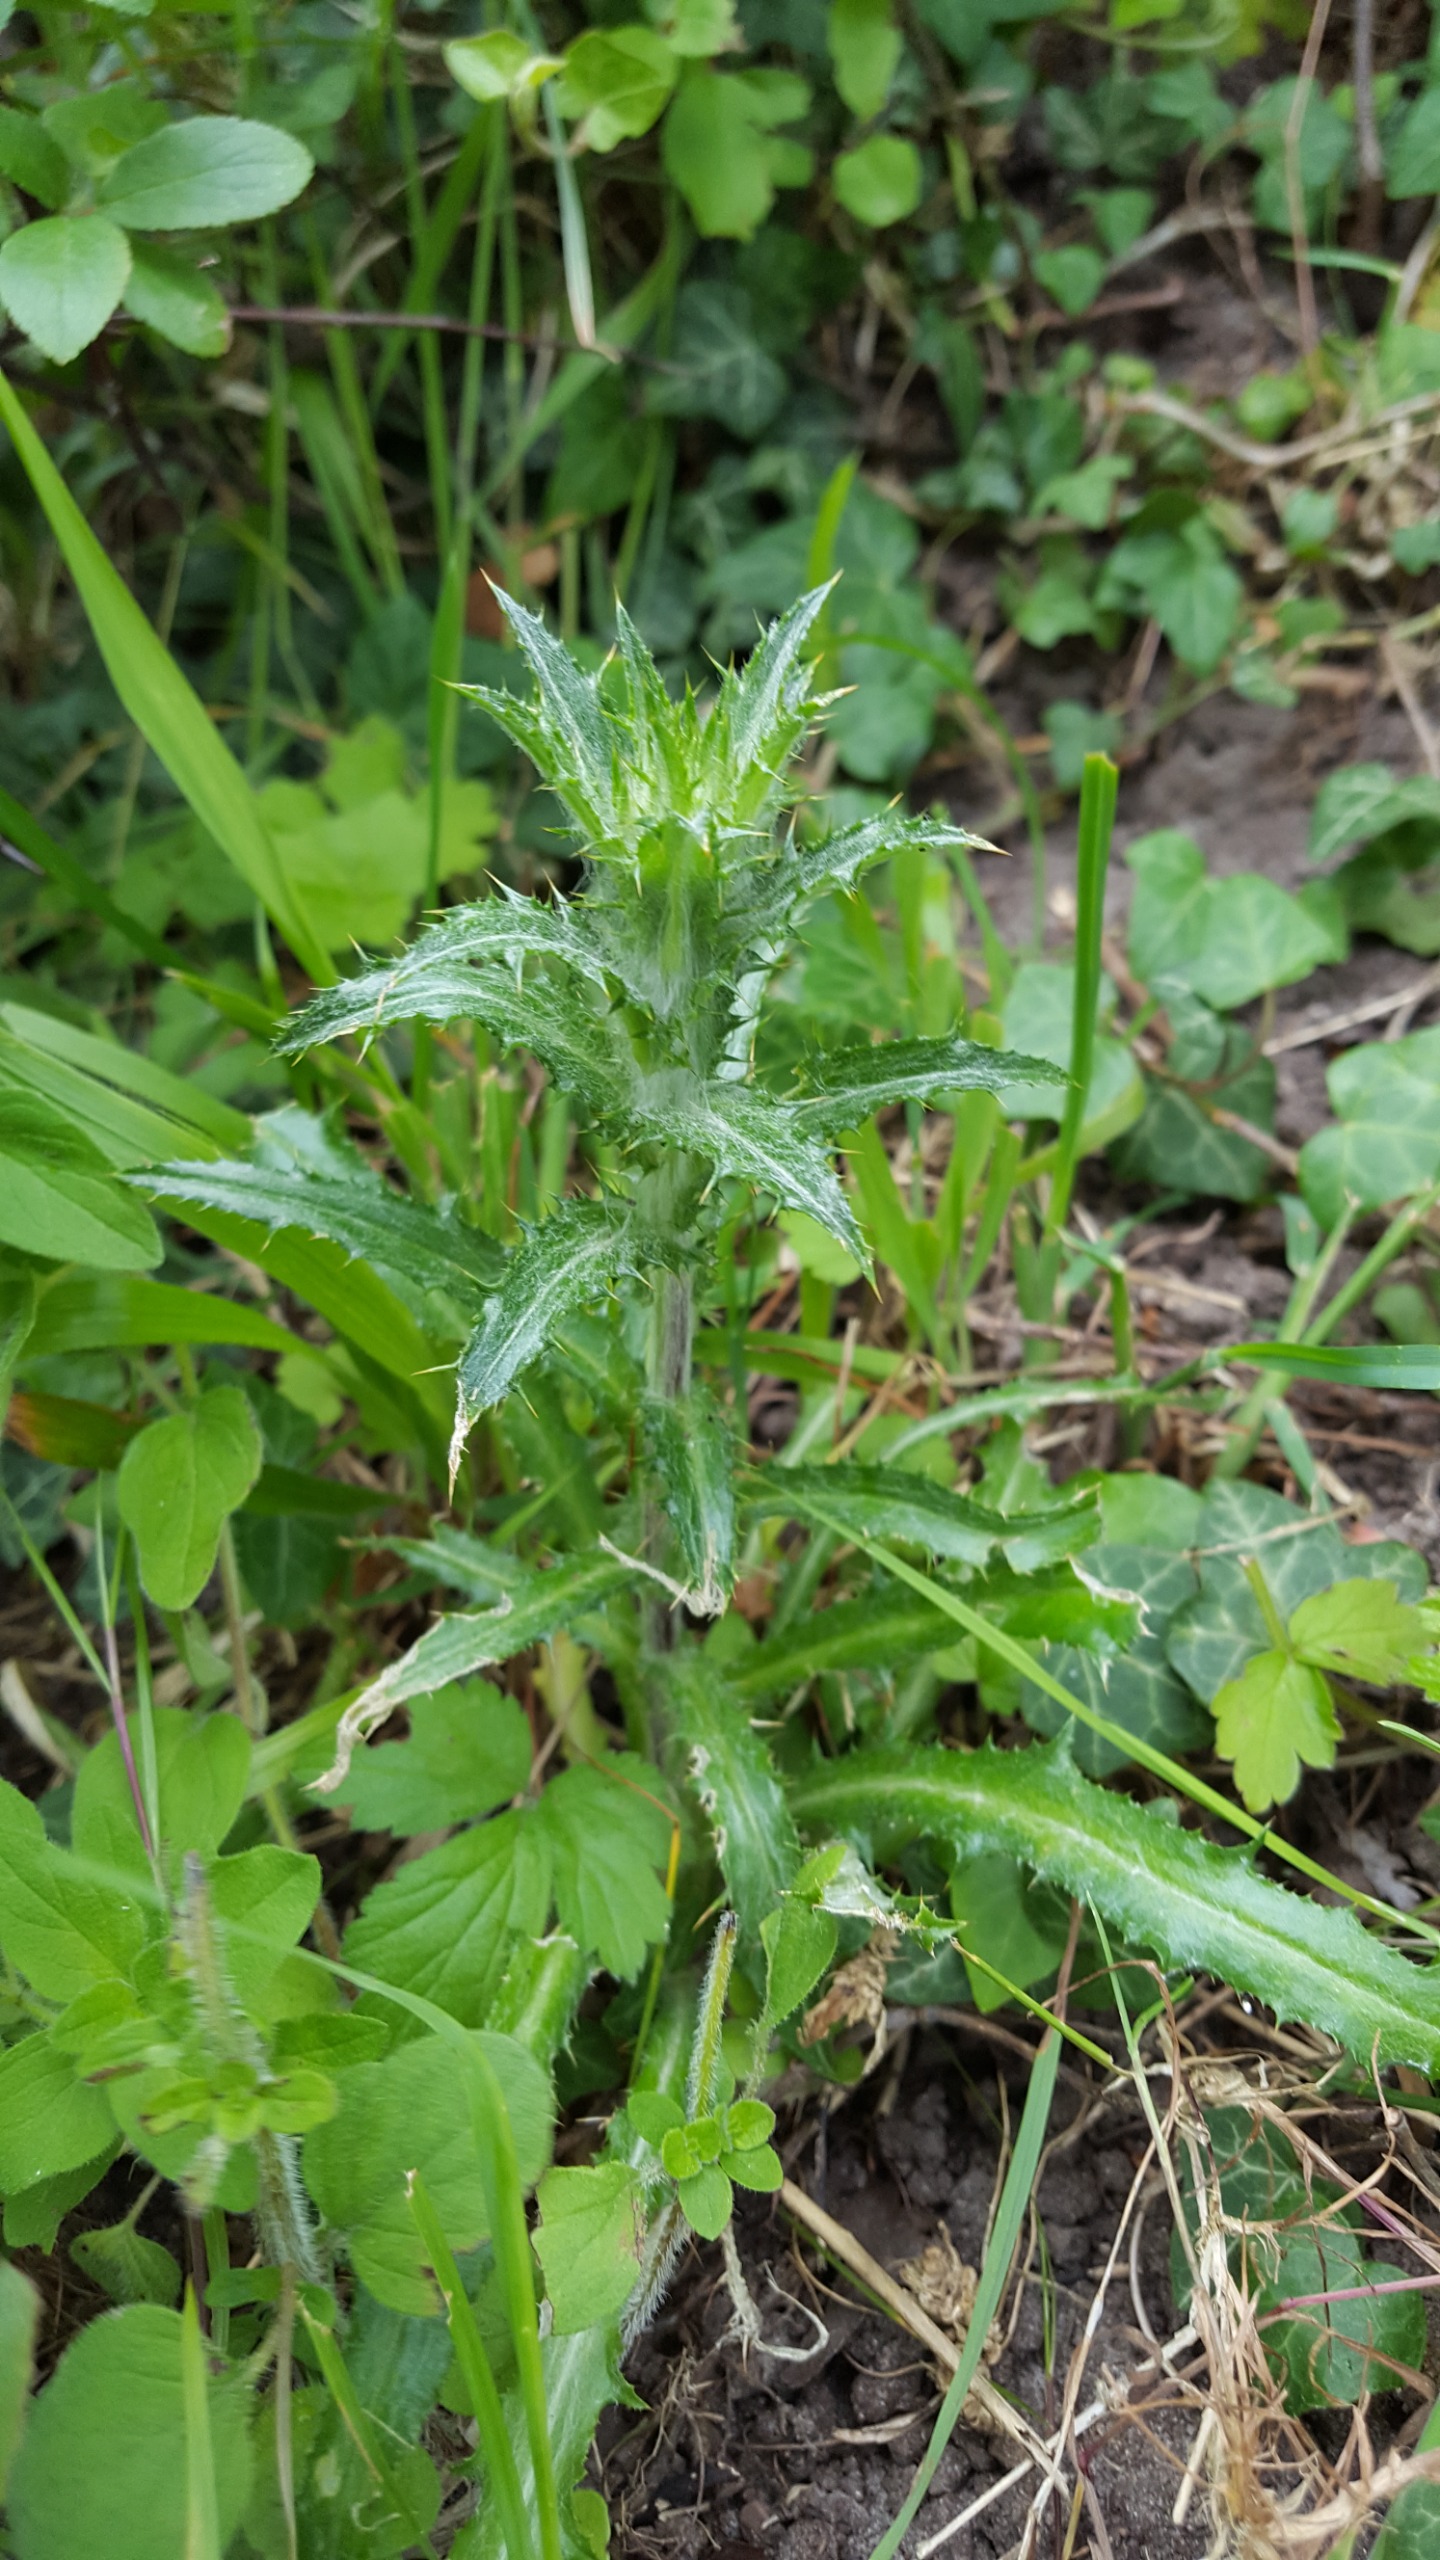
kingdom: Plantae
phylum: Tracheophyta
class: Magnoliopsida
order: Asterales
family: Asteraceae
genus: Carlina
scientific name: Carlina vulgaris
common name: Bakketidsel
